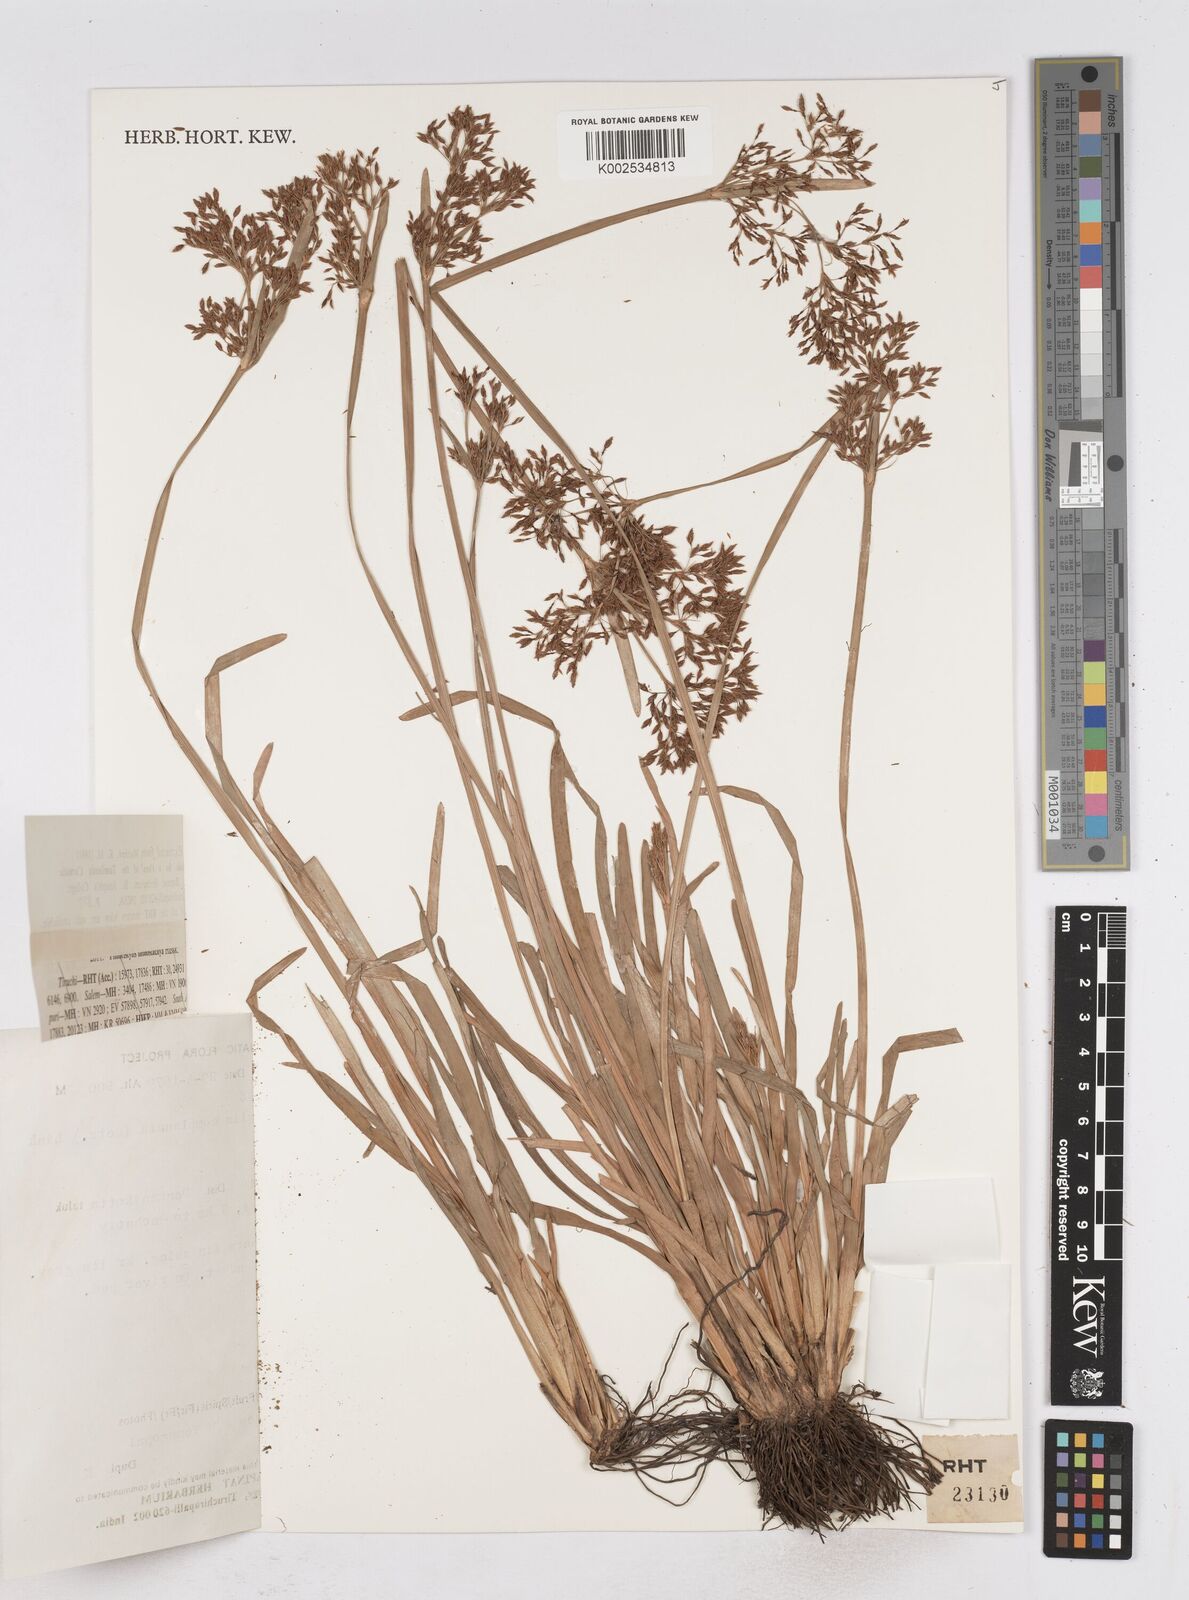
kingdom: Plantae
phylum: Tracheophyta
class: Liliopsida
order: Poales
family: Cyperaceae
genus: Fimbristylis
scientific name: Fimbristylis complanata
